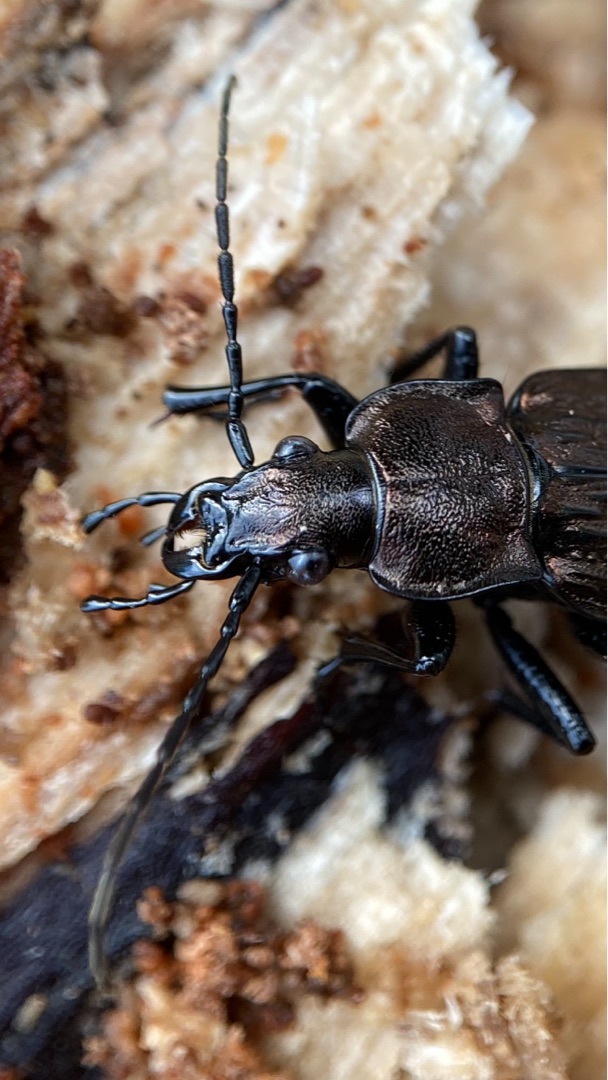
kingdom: Animalia
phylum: Arthropoda
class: Insecta
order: Coleoptera
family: Carabidae
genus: Carabus
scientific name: Carabus granulatus
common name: Kornet løber
